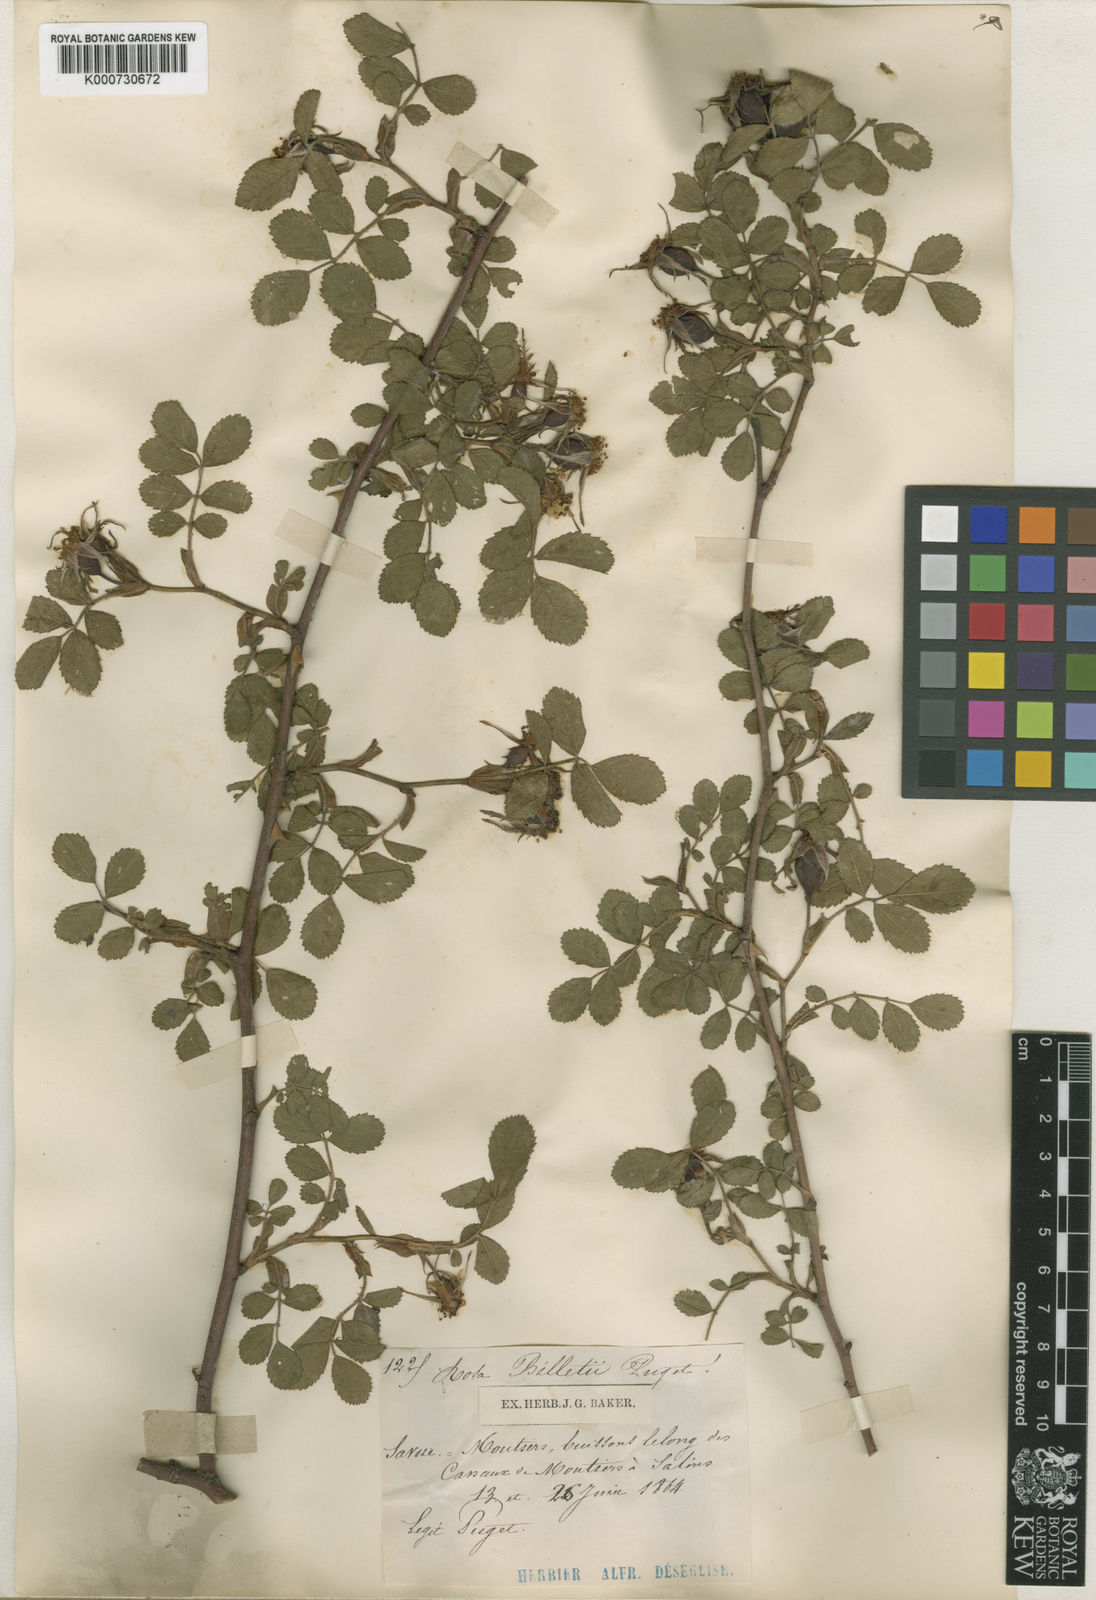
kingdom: Plantae
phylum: Tracheophyta
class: Magnoliopsida
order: Rosales
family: Rosaceae
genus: Rosa
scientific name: Rosa agrestis
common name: Fieldbriar
